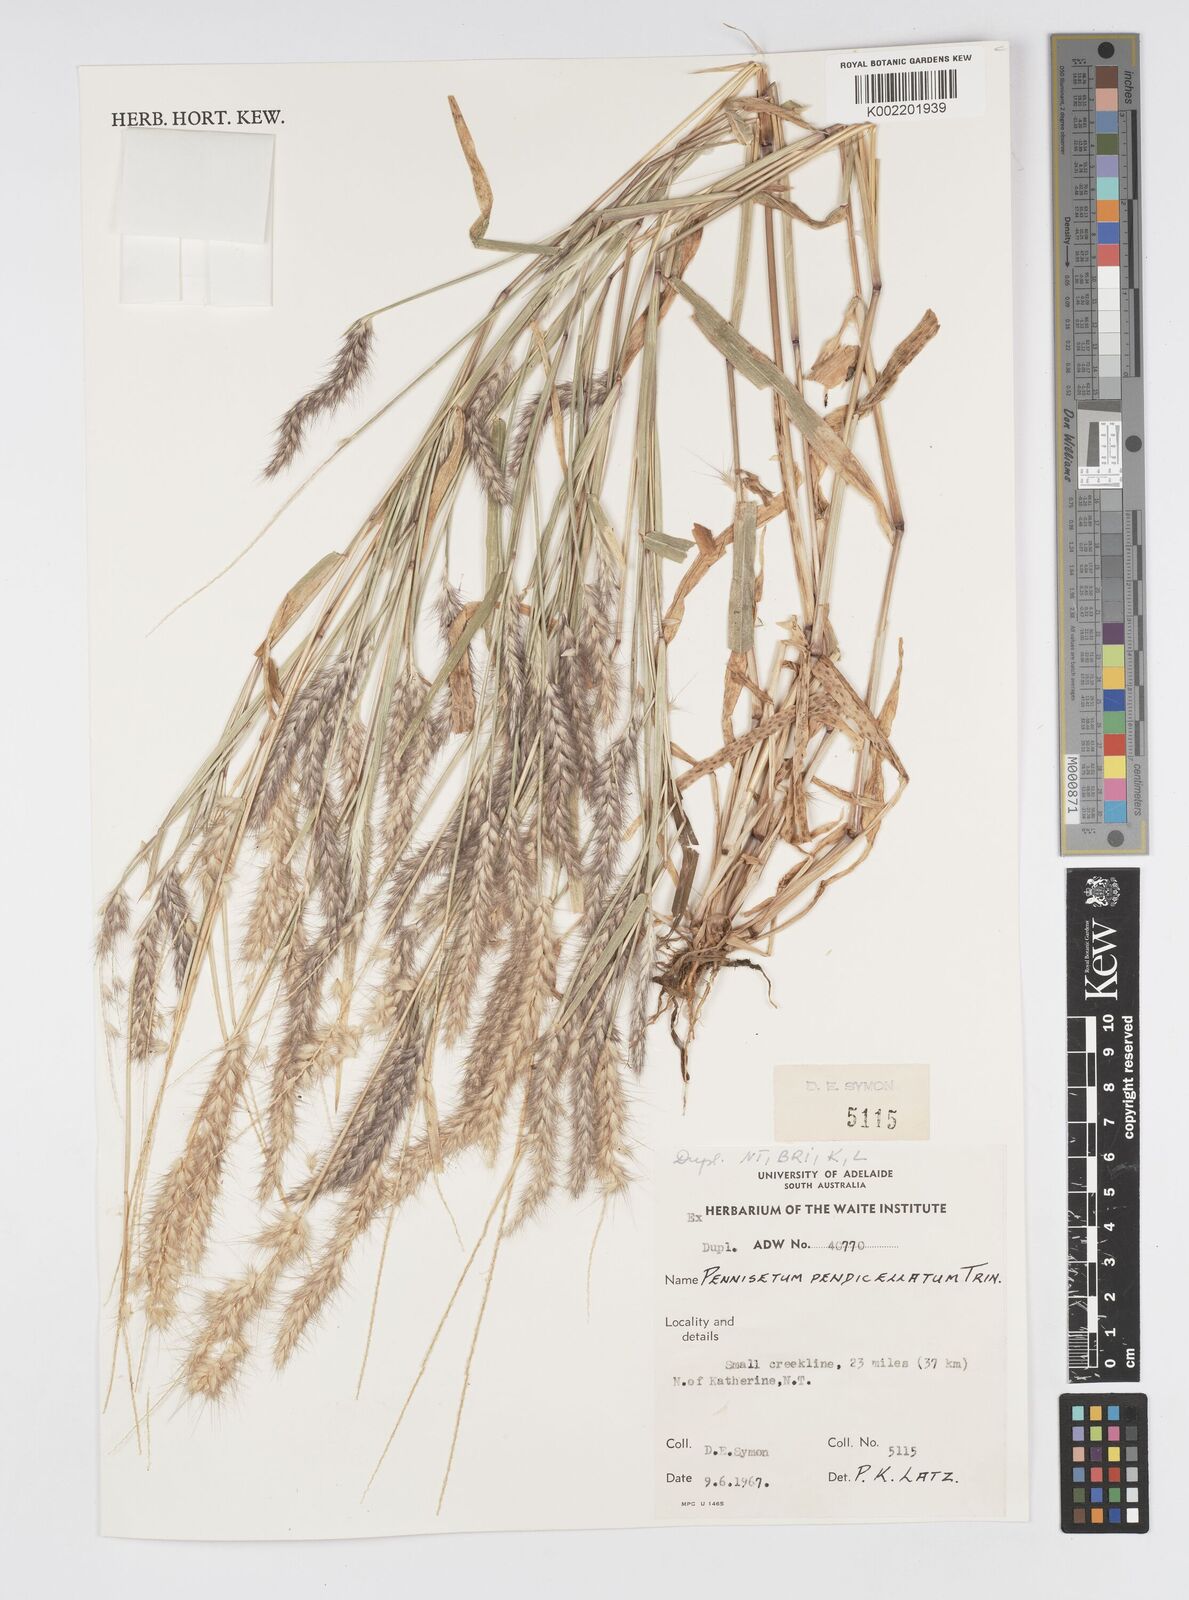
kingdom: Plantae
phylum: Tracheophyta
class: Liliopsida
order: Poales
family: Poaceae
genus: Cenchrus
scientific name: Cenchrus pedicellatus
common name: Hairy fountain grass
